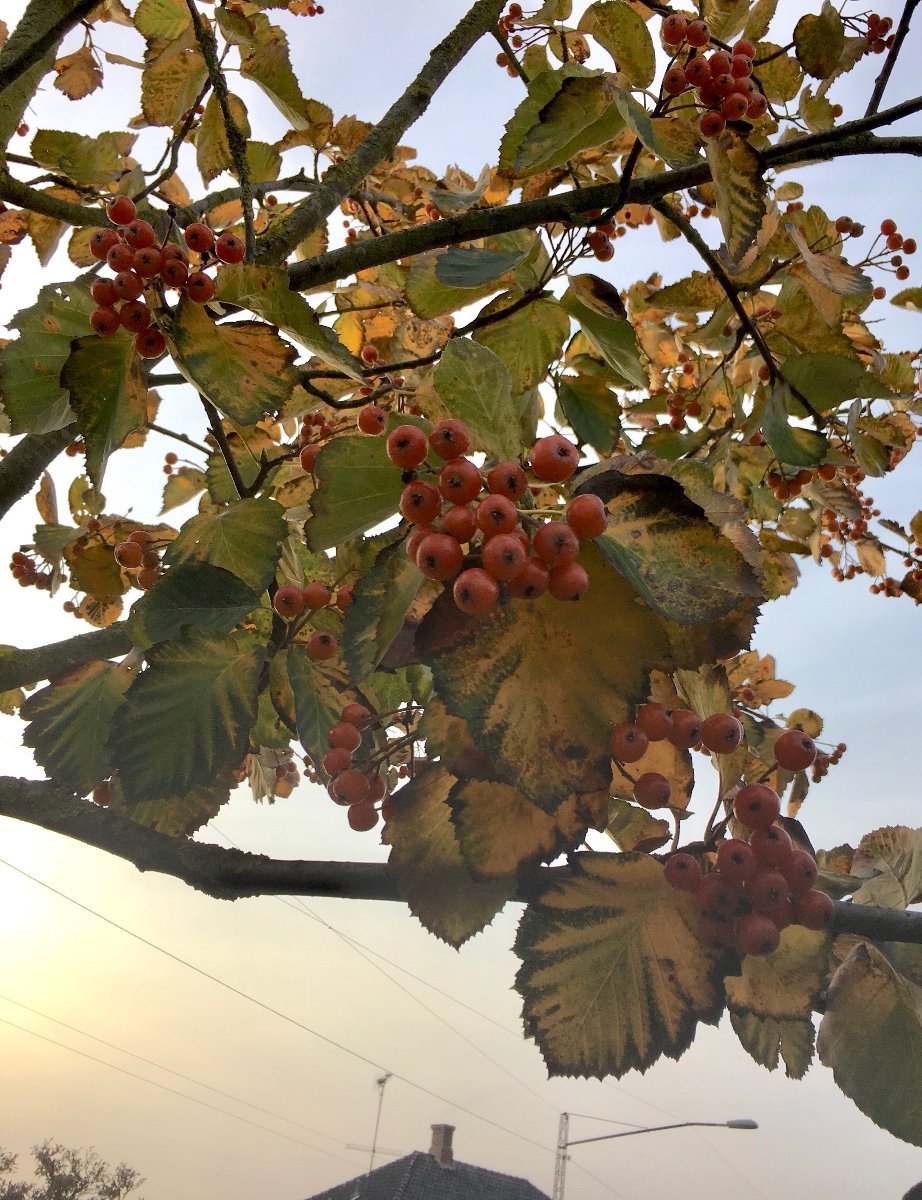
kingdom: Fungi
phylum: Basidiomycota
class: Agaricomycetes
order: Agaricales
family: Agaricaceae
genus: Leucoagaricus
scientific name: Leucoagaricus leucothites
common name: rosabladet silkehat
